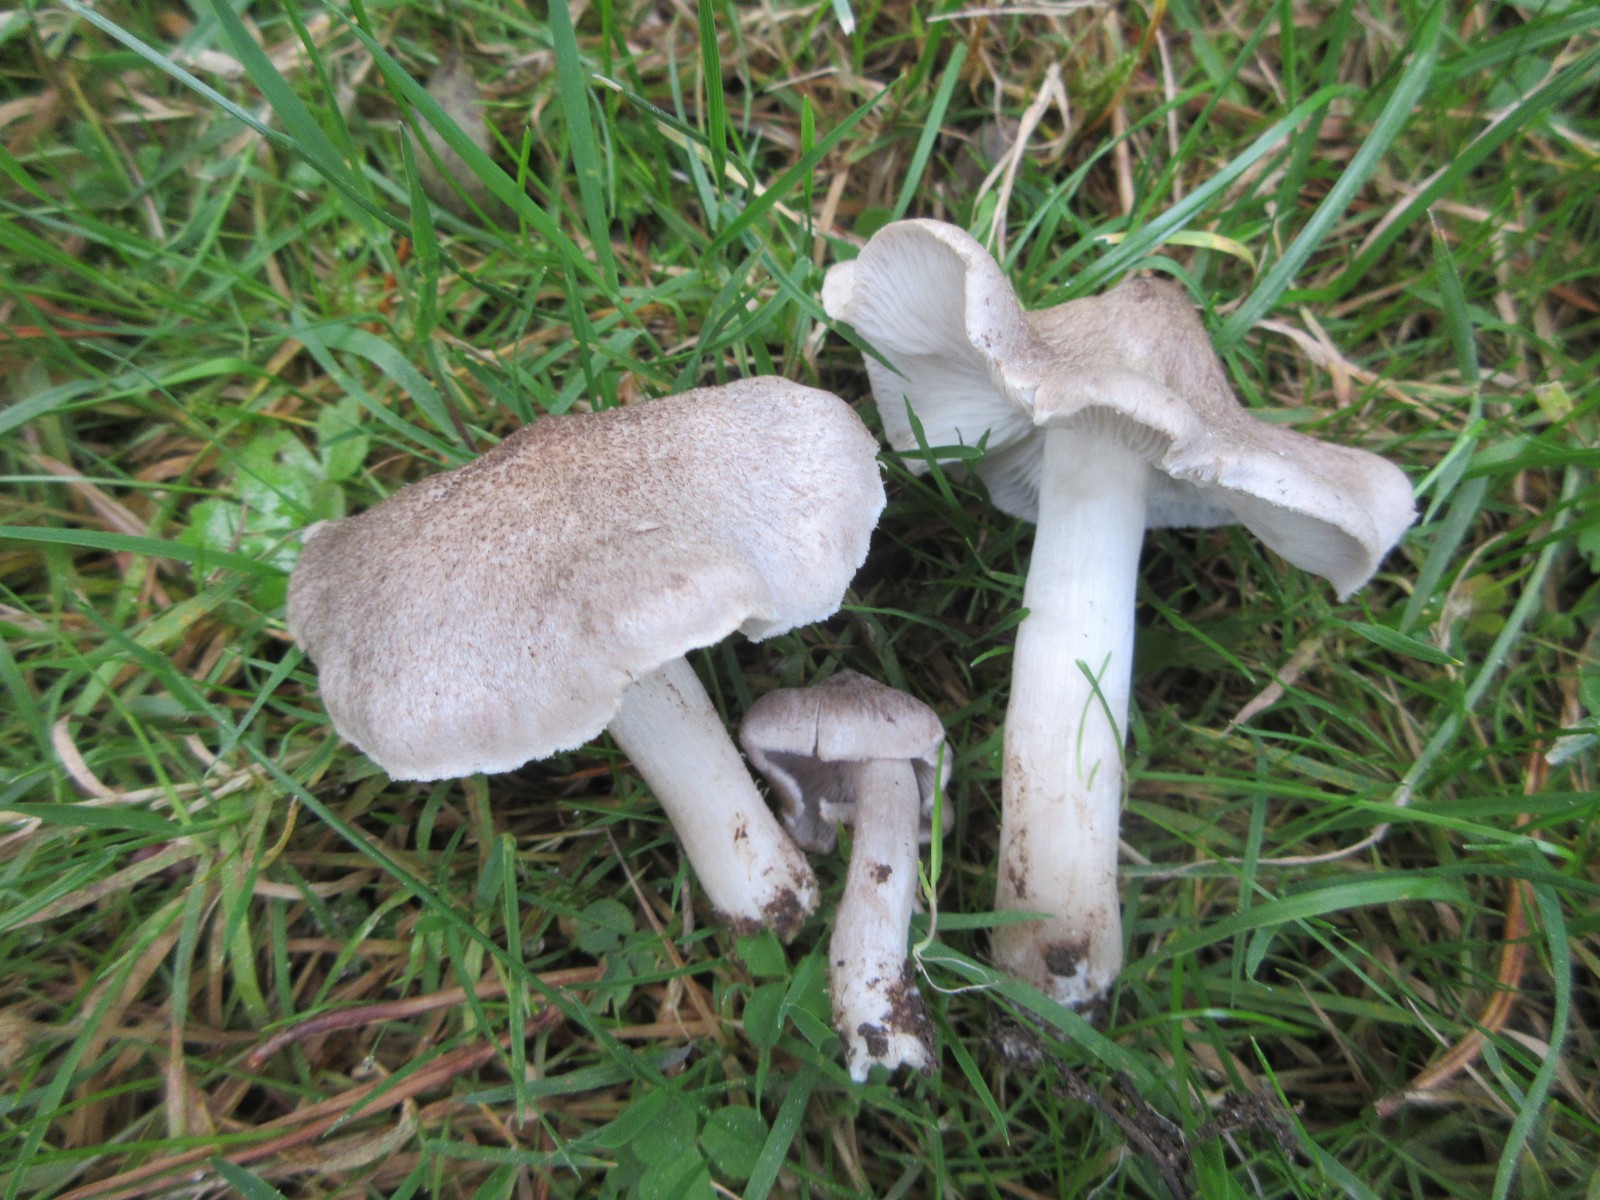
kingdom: Fungi
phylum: Basidiomycota
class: Agaricomycetes
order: Agaricales
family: Tricholomataceae
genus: Tricholoma
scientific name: Tricholoma terreum
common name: jordfarvet ridderhat
